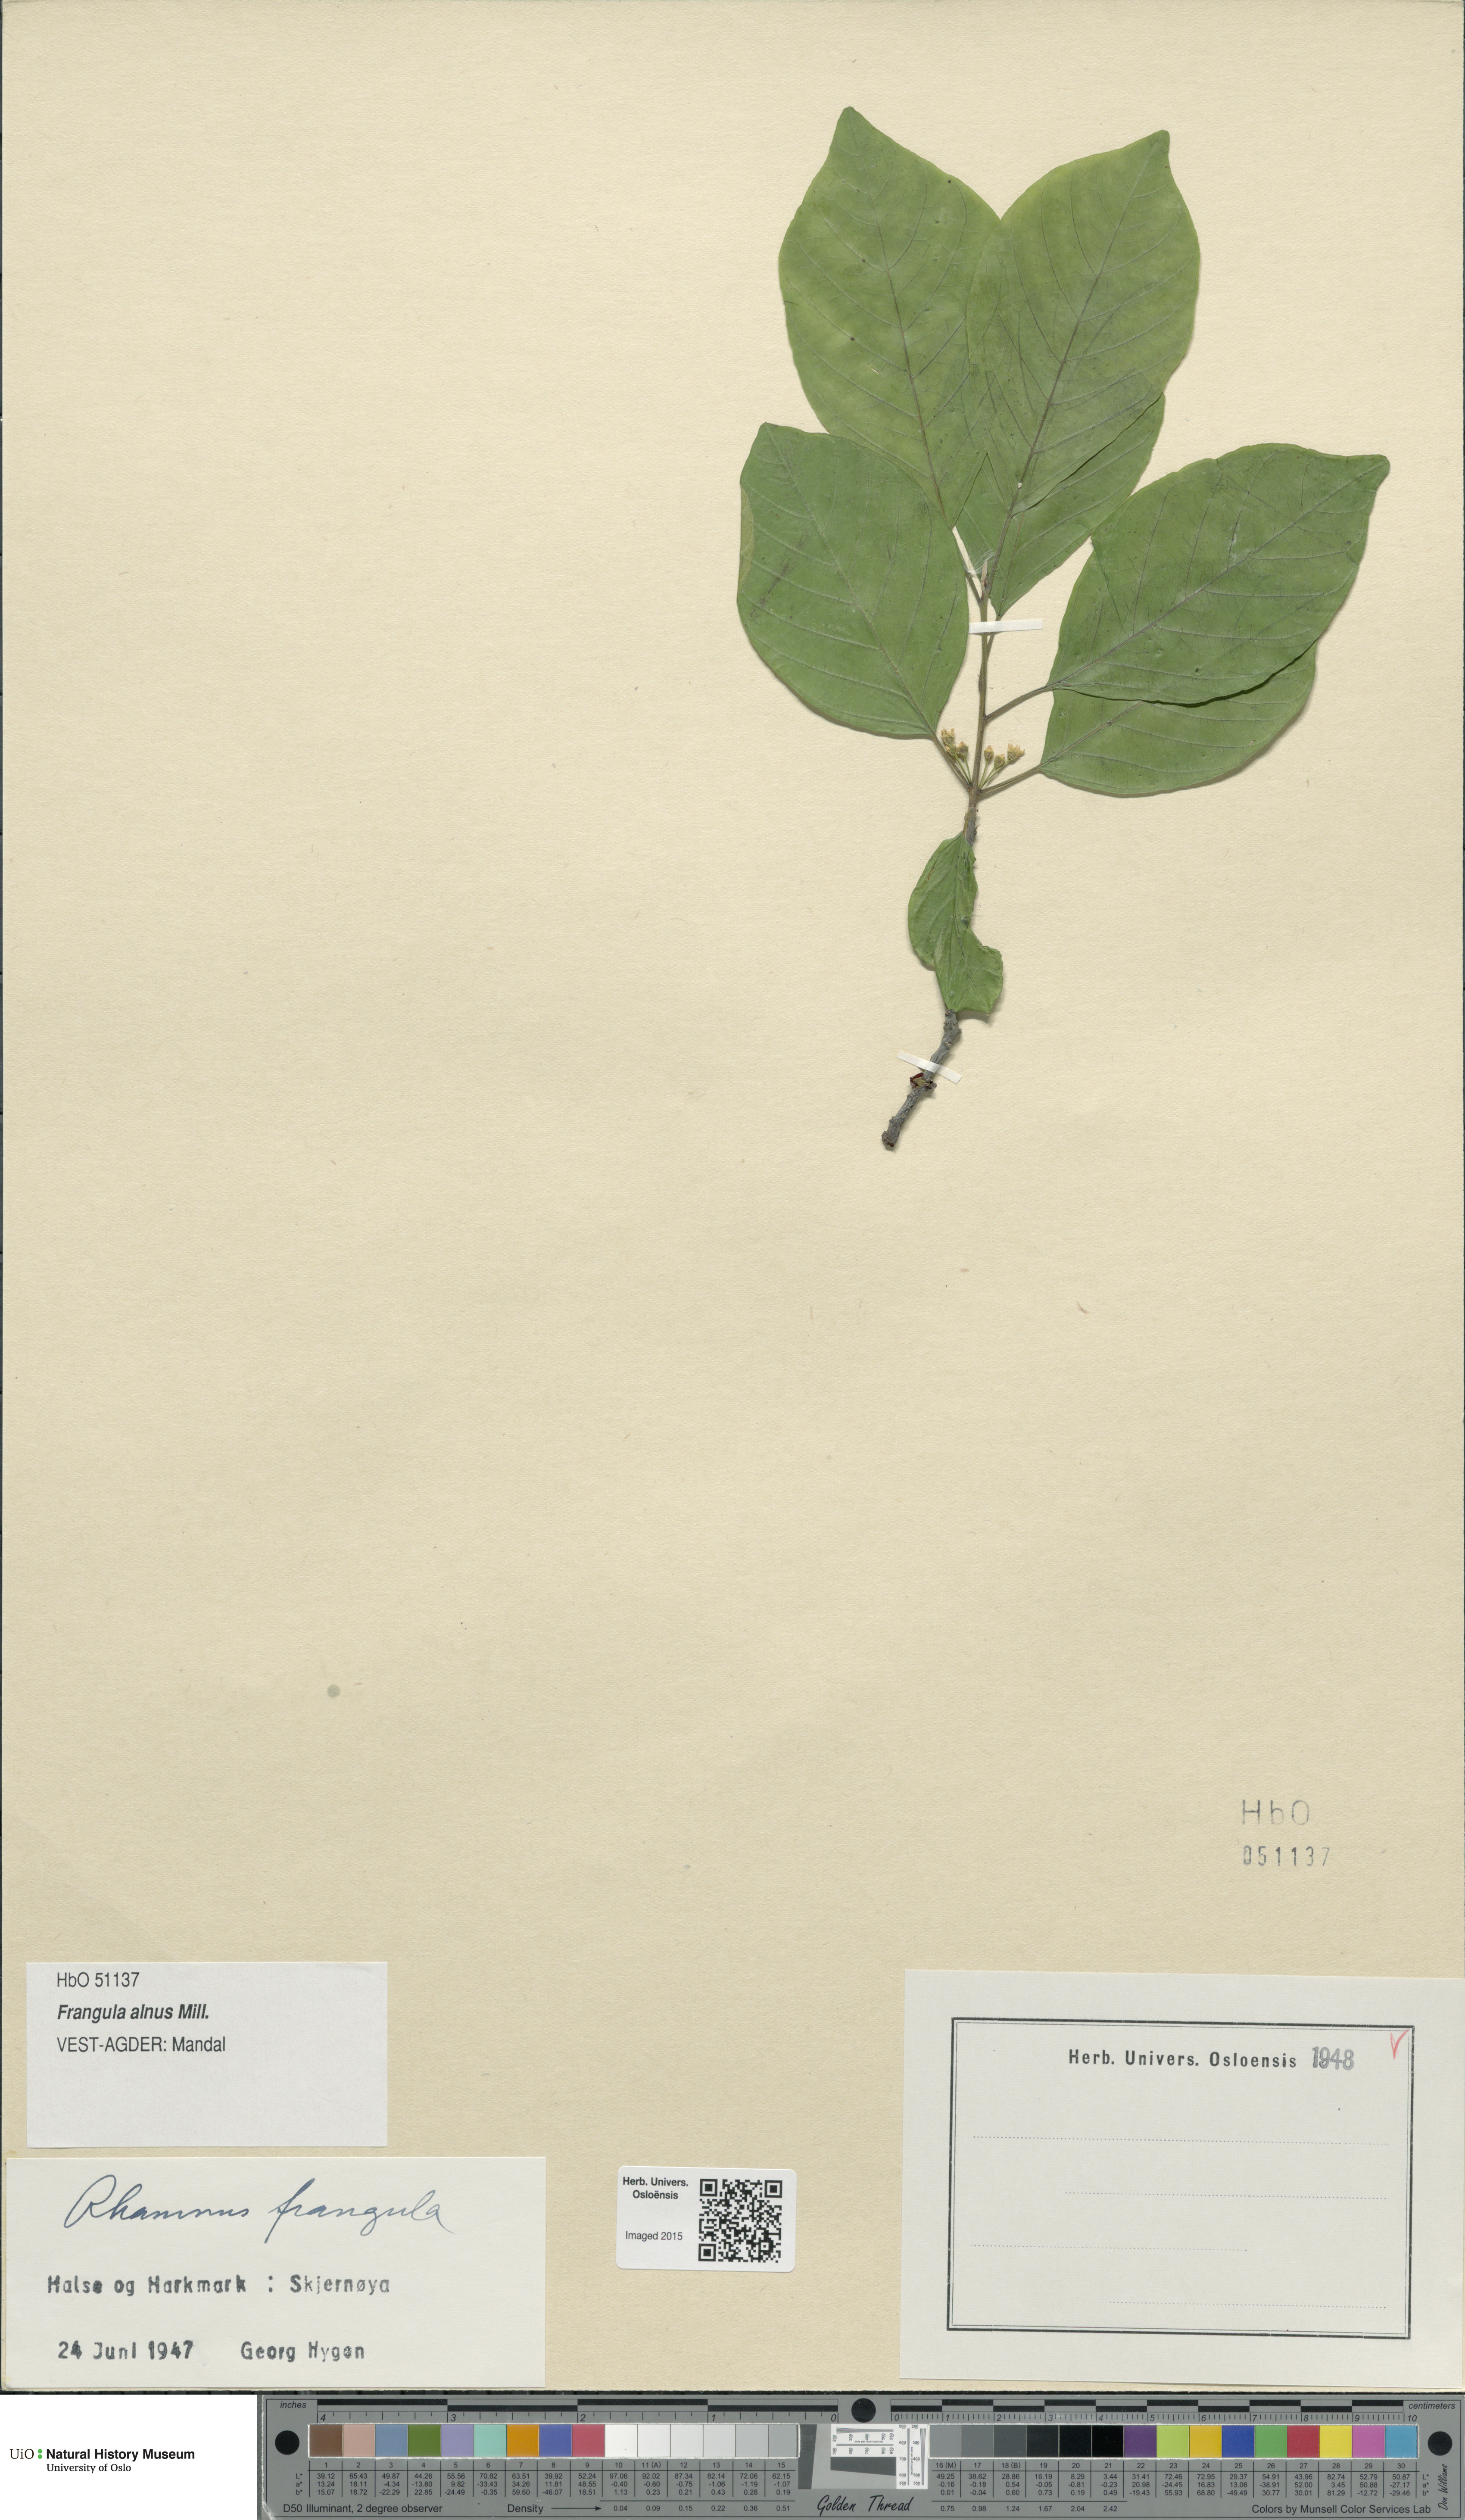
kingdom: Plantae
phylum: Tracheophyta
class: Magnoliopsida
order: Rosales
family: Rhamnaceae
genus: Frangula
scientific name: Frangula alnus
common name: Alder buckthorn
